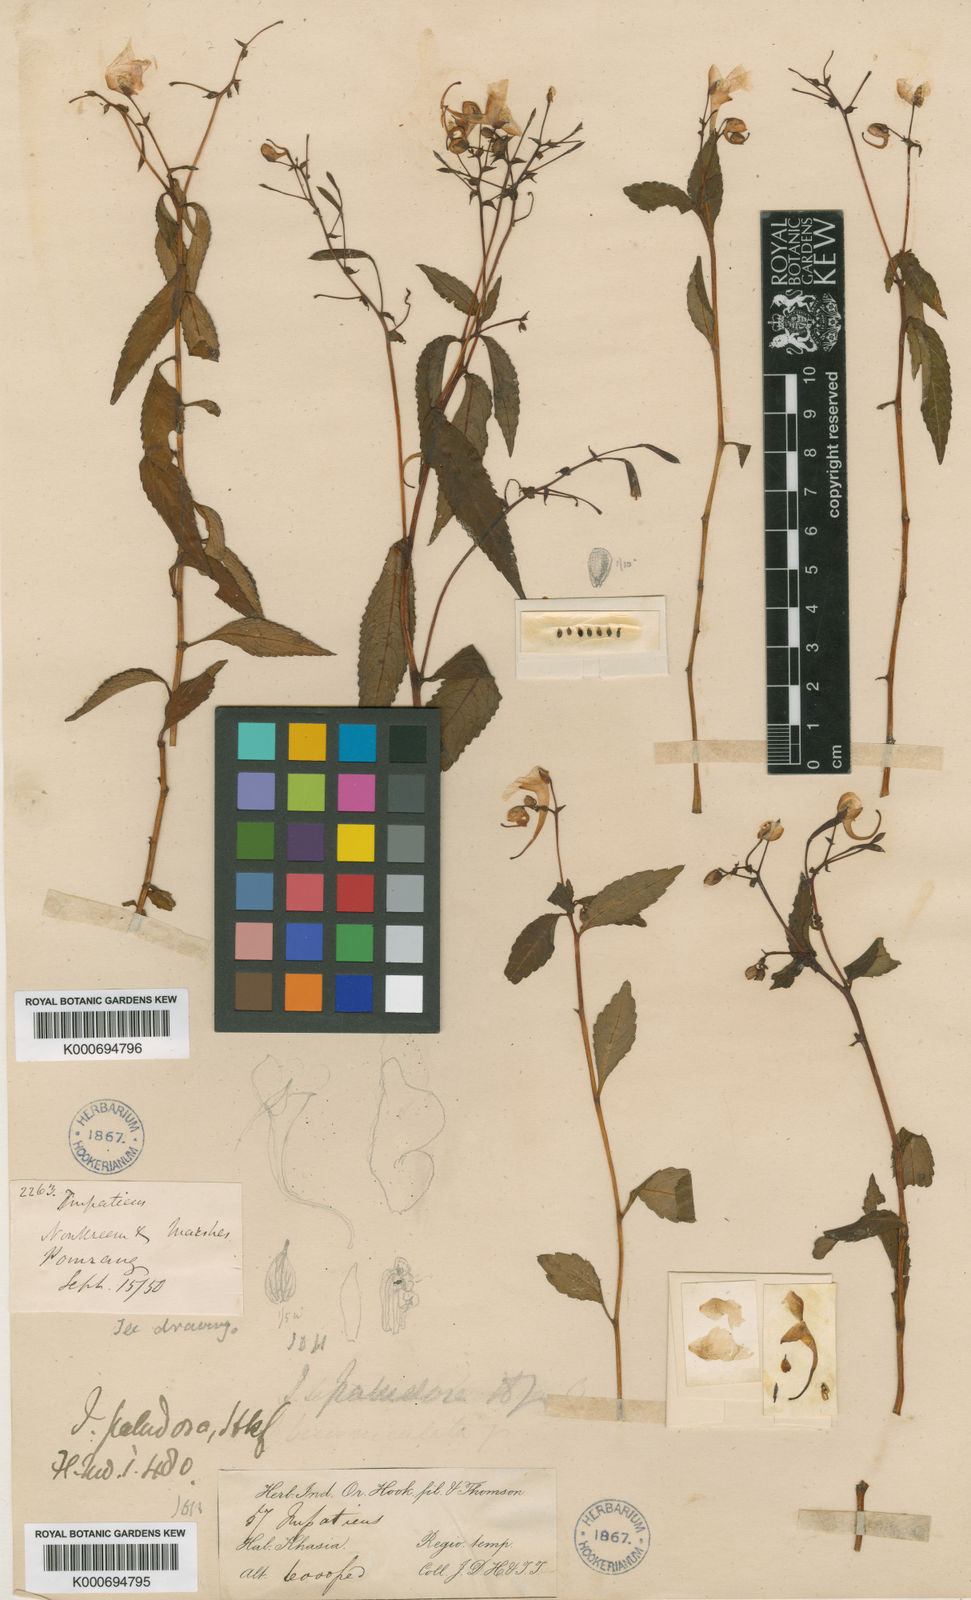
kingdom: Plantae
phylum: Tracheophyta
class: Magnoliopsida
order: Ericales
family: Balsaminaceae
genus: Impatiens
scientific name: Impatiens paludosa
